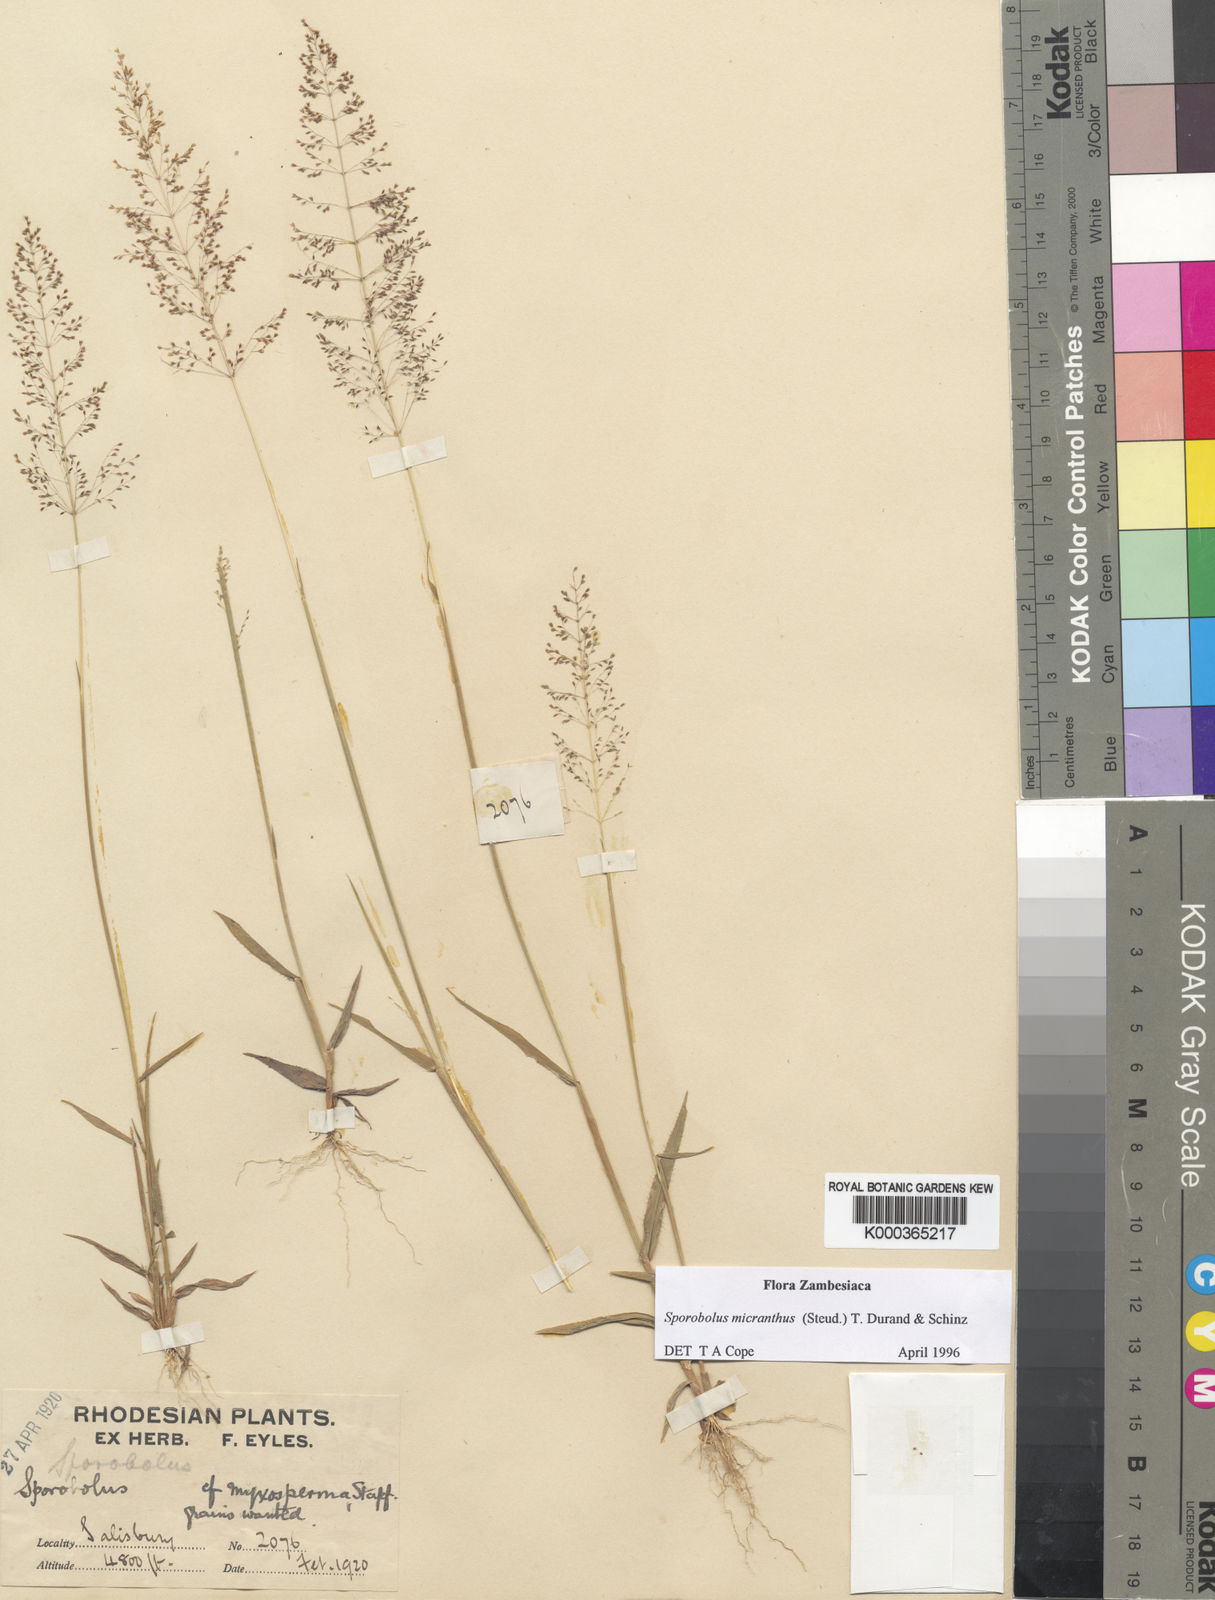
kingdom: Plantae
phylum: Tracheophyta
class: Liliopsida
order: Poales
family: Poaceae
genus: Sporobolus
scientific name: Sporobolus micranthus
